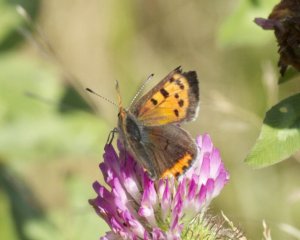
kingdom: Animalia
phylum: Arthropoda
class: Insecta
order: Lepidoptera
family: Lycaenidae
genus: Lycaena
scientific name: Lycaena phlaeas
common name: American Copper
